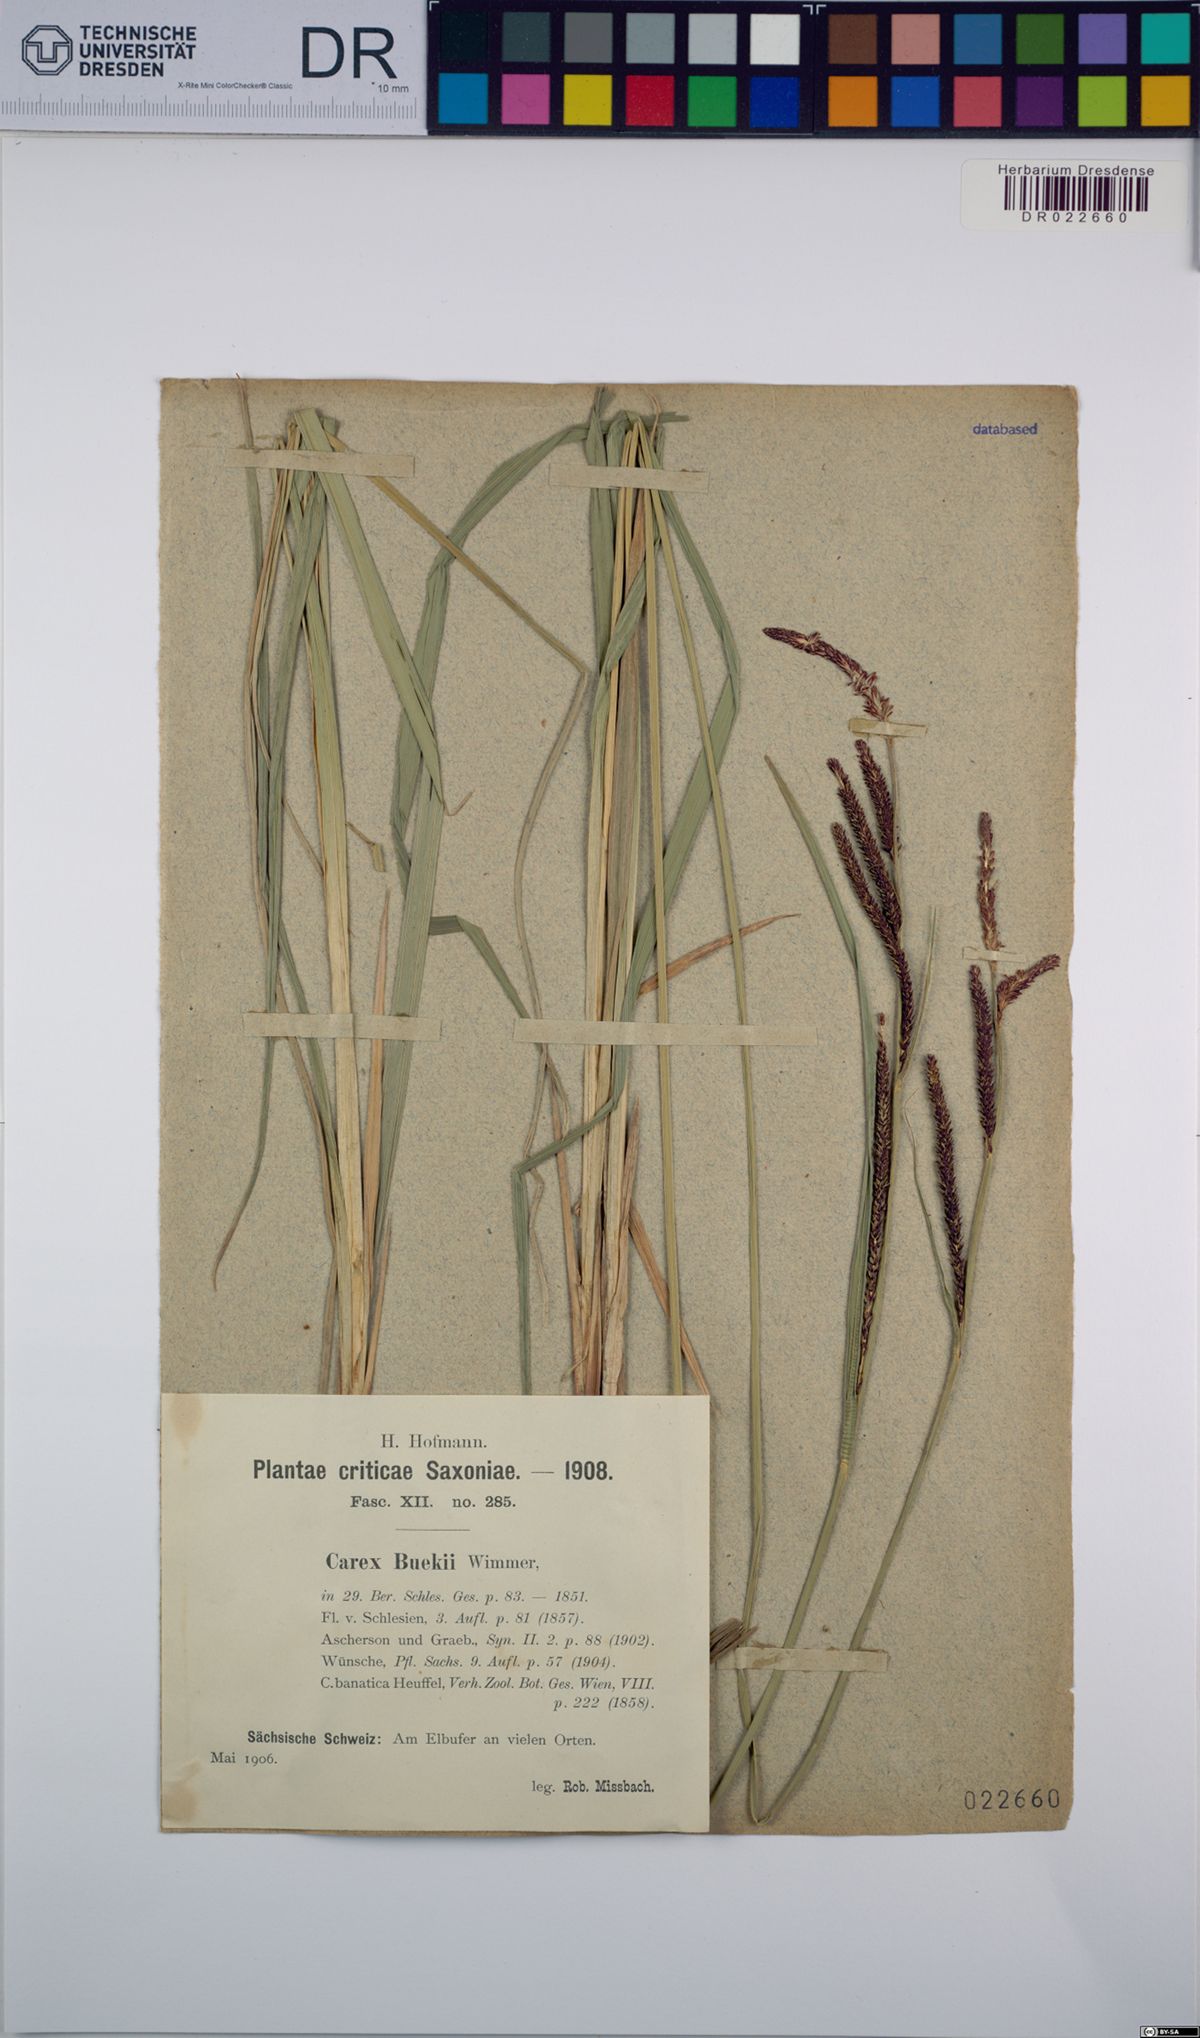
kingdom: Plantae
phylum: Tracheophyta
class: Liliopsida
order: Poales
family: Cyperaceae
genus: Carex
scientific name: Carex buekii
